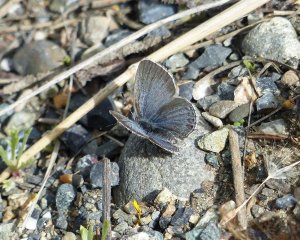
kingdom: Animalia
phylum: Arthropoda
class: Insecta
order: Lepidoptera
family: Lycaenidae
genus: Elkalyce
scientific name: Elkalyce amyntula
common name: Western Tailed-Blue
